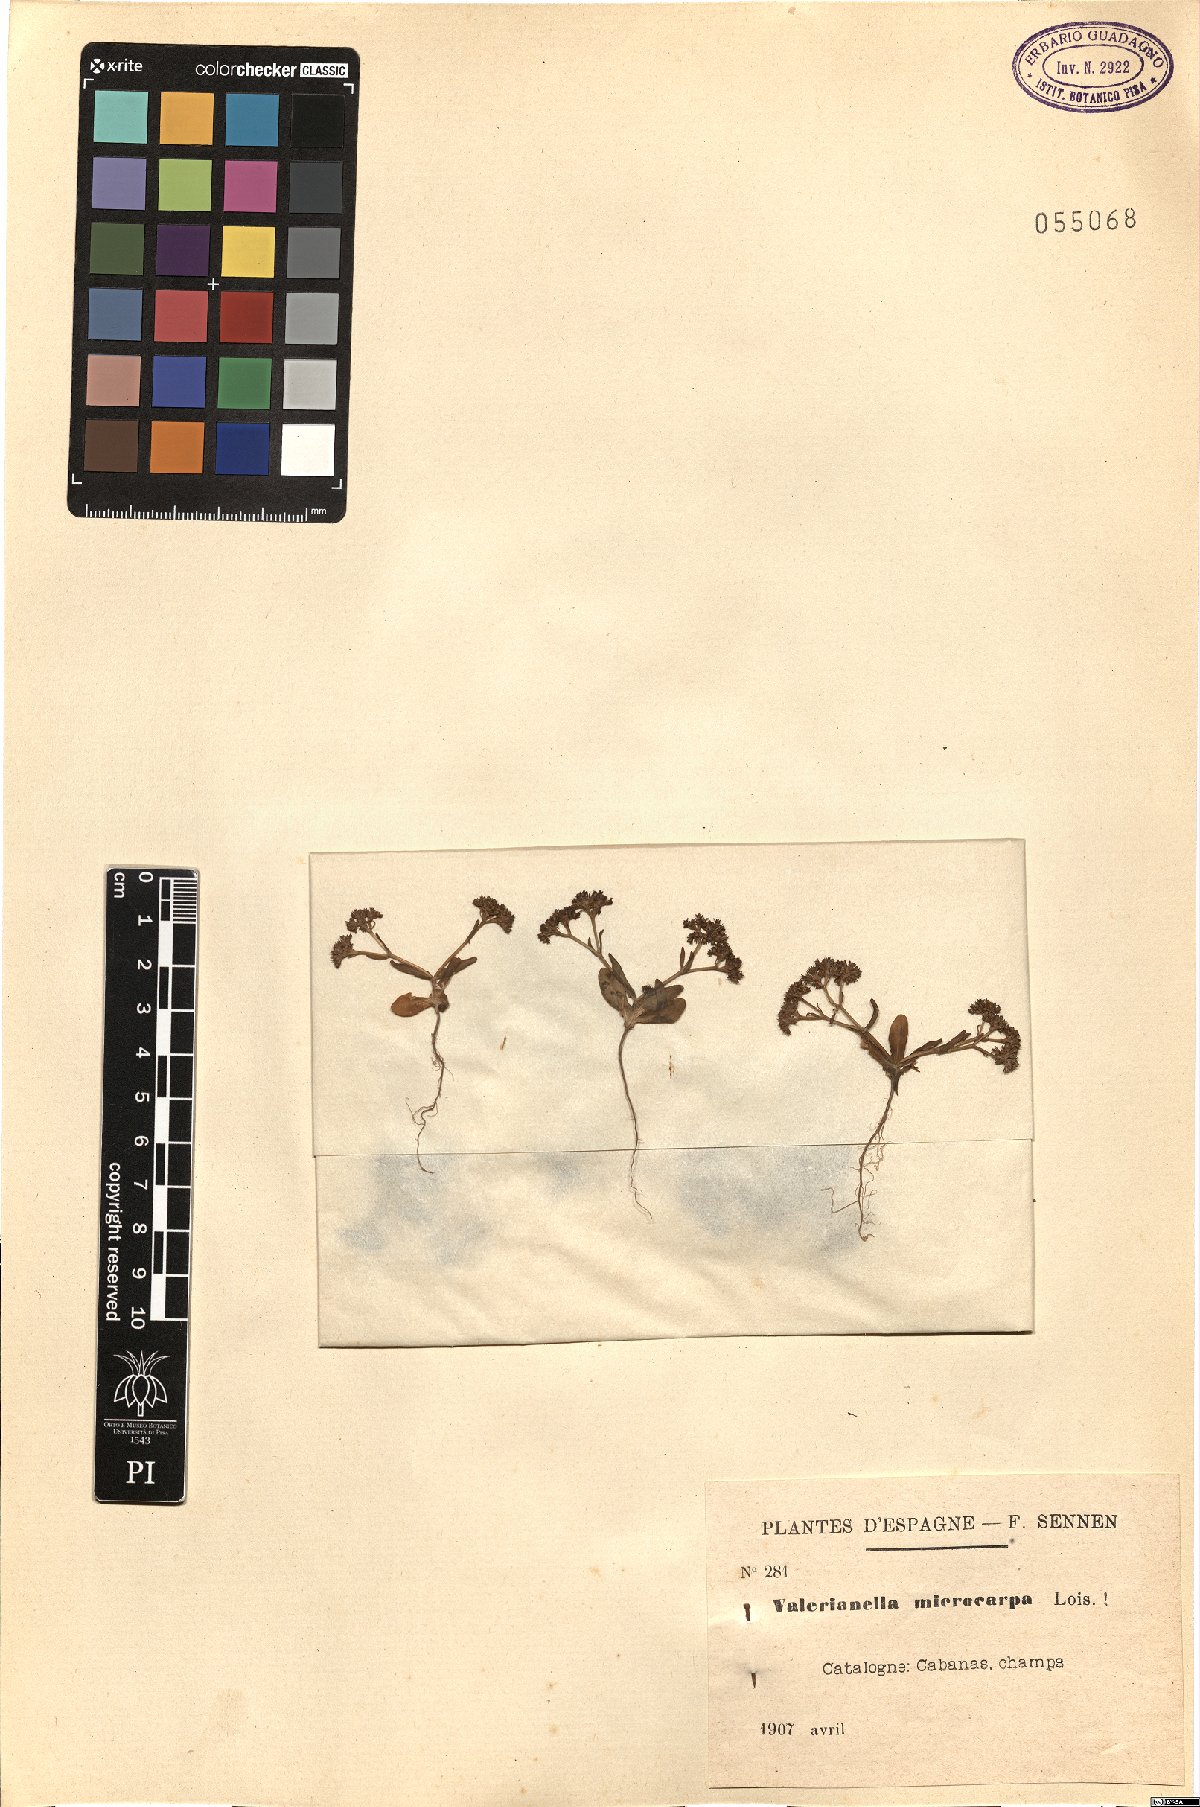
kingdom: Plantae
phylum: Tracheophyta
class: Magnoliopsida
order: Dipsacales
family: Caprifoliaceae
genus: Valerianella
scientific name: Valerianella microcarpa
